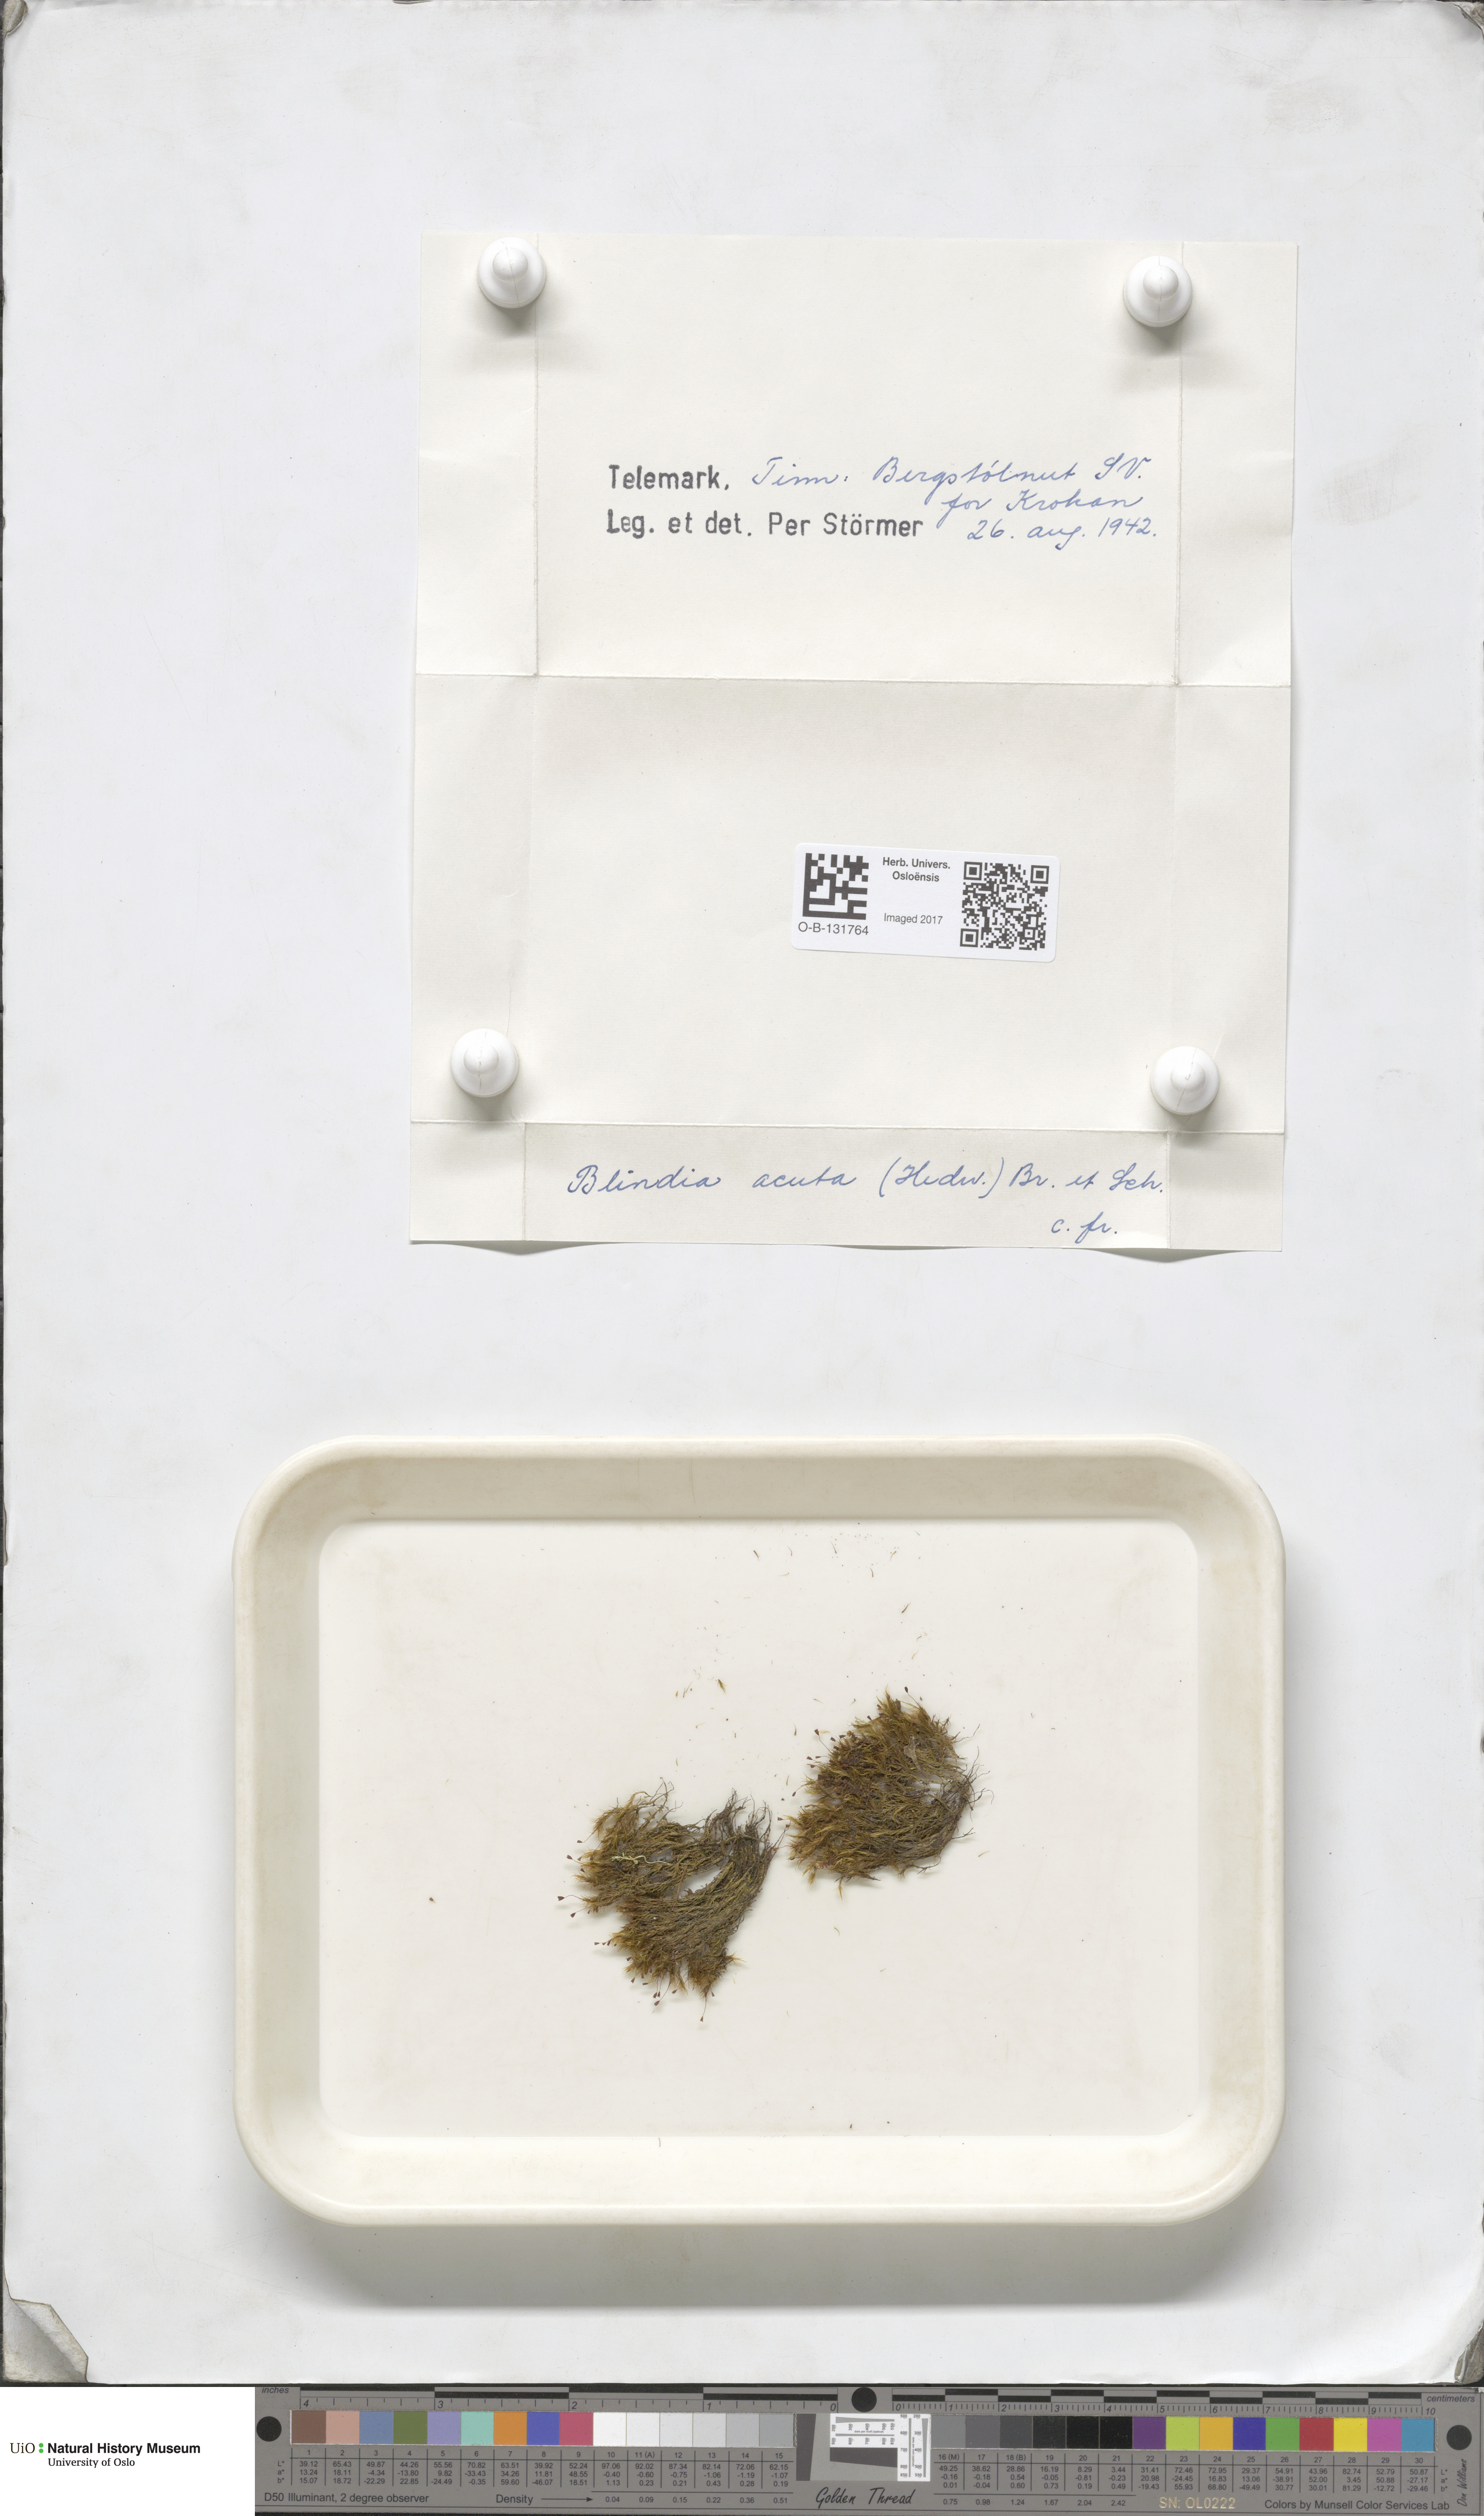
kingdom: Plantae
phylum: Bryophyta
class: Bryopsida
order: Grimmiales
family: Seligeriaceae
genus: Blindia
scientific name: Blindia acuta
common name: Sharp-leaved blind's moss
